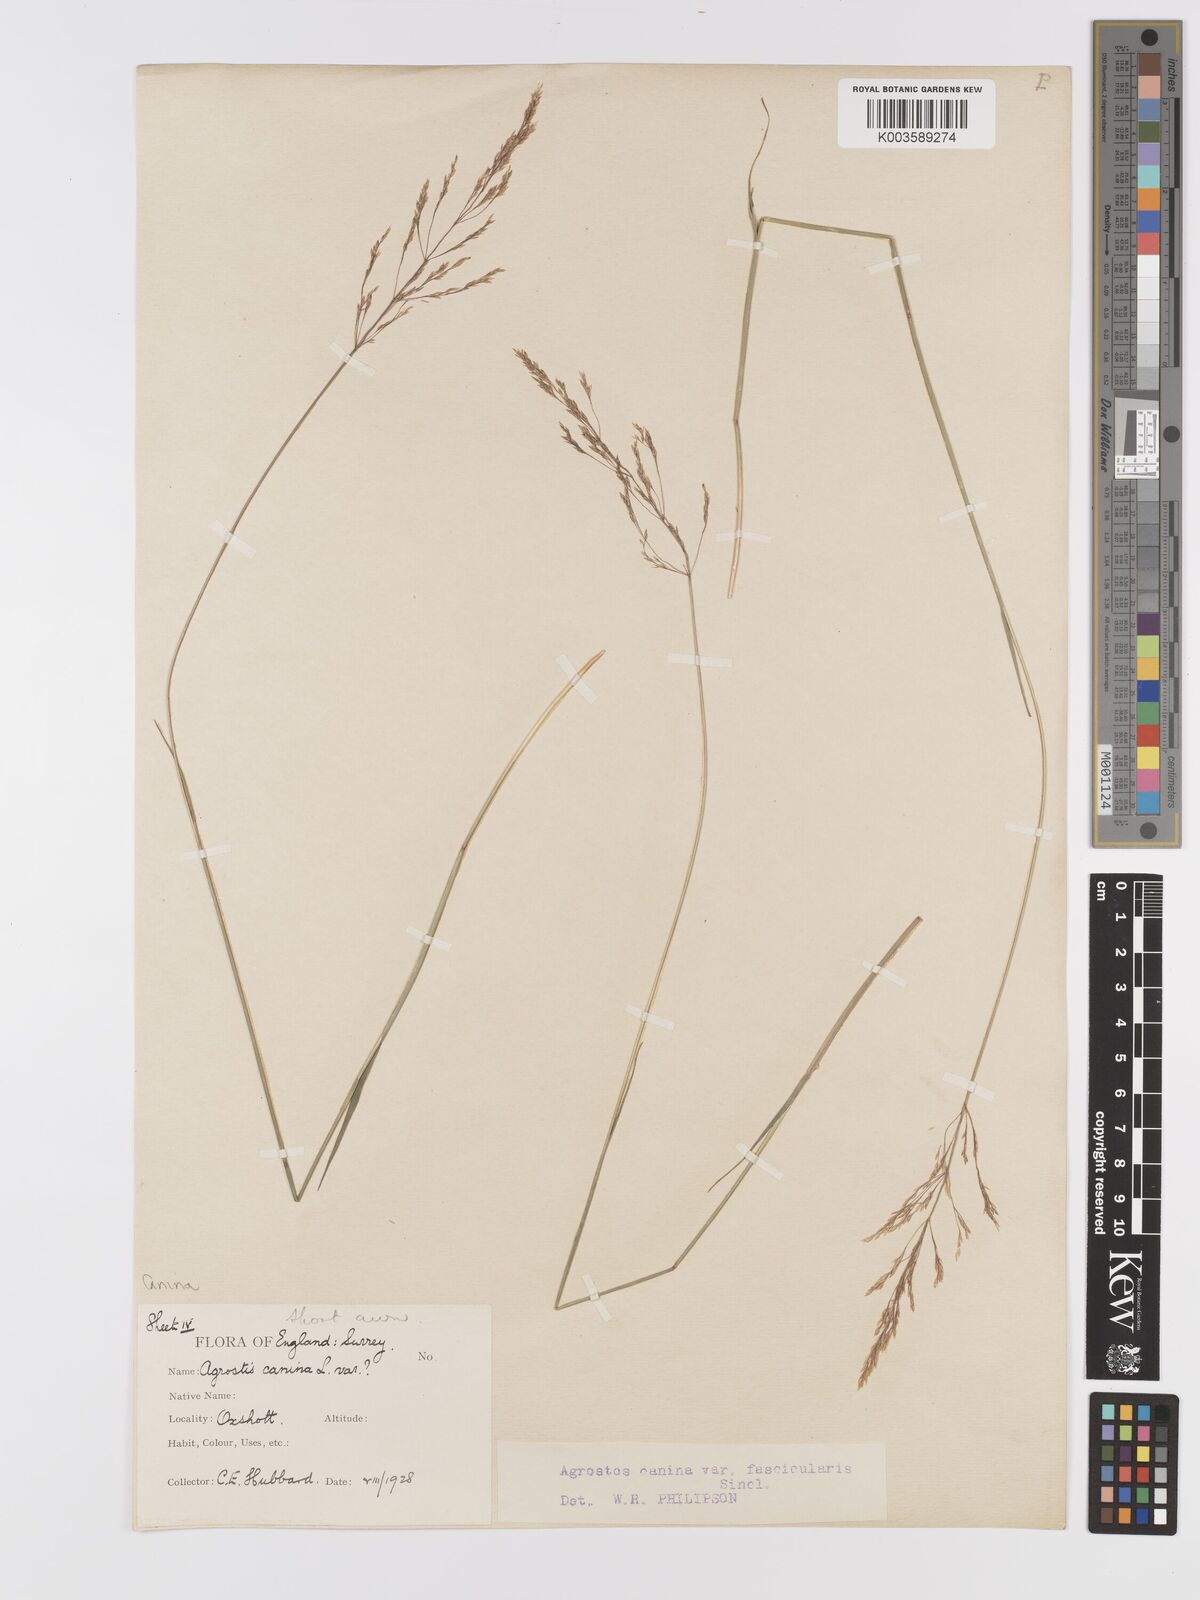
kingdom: Plantae
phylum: Tracheophyta
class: Liliopsida
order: Poales
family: Poaceae
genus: Agrostis
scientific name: Agrostis canina
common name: Velvet bent
